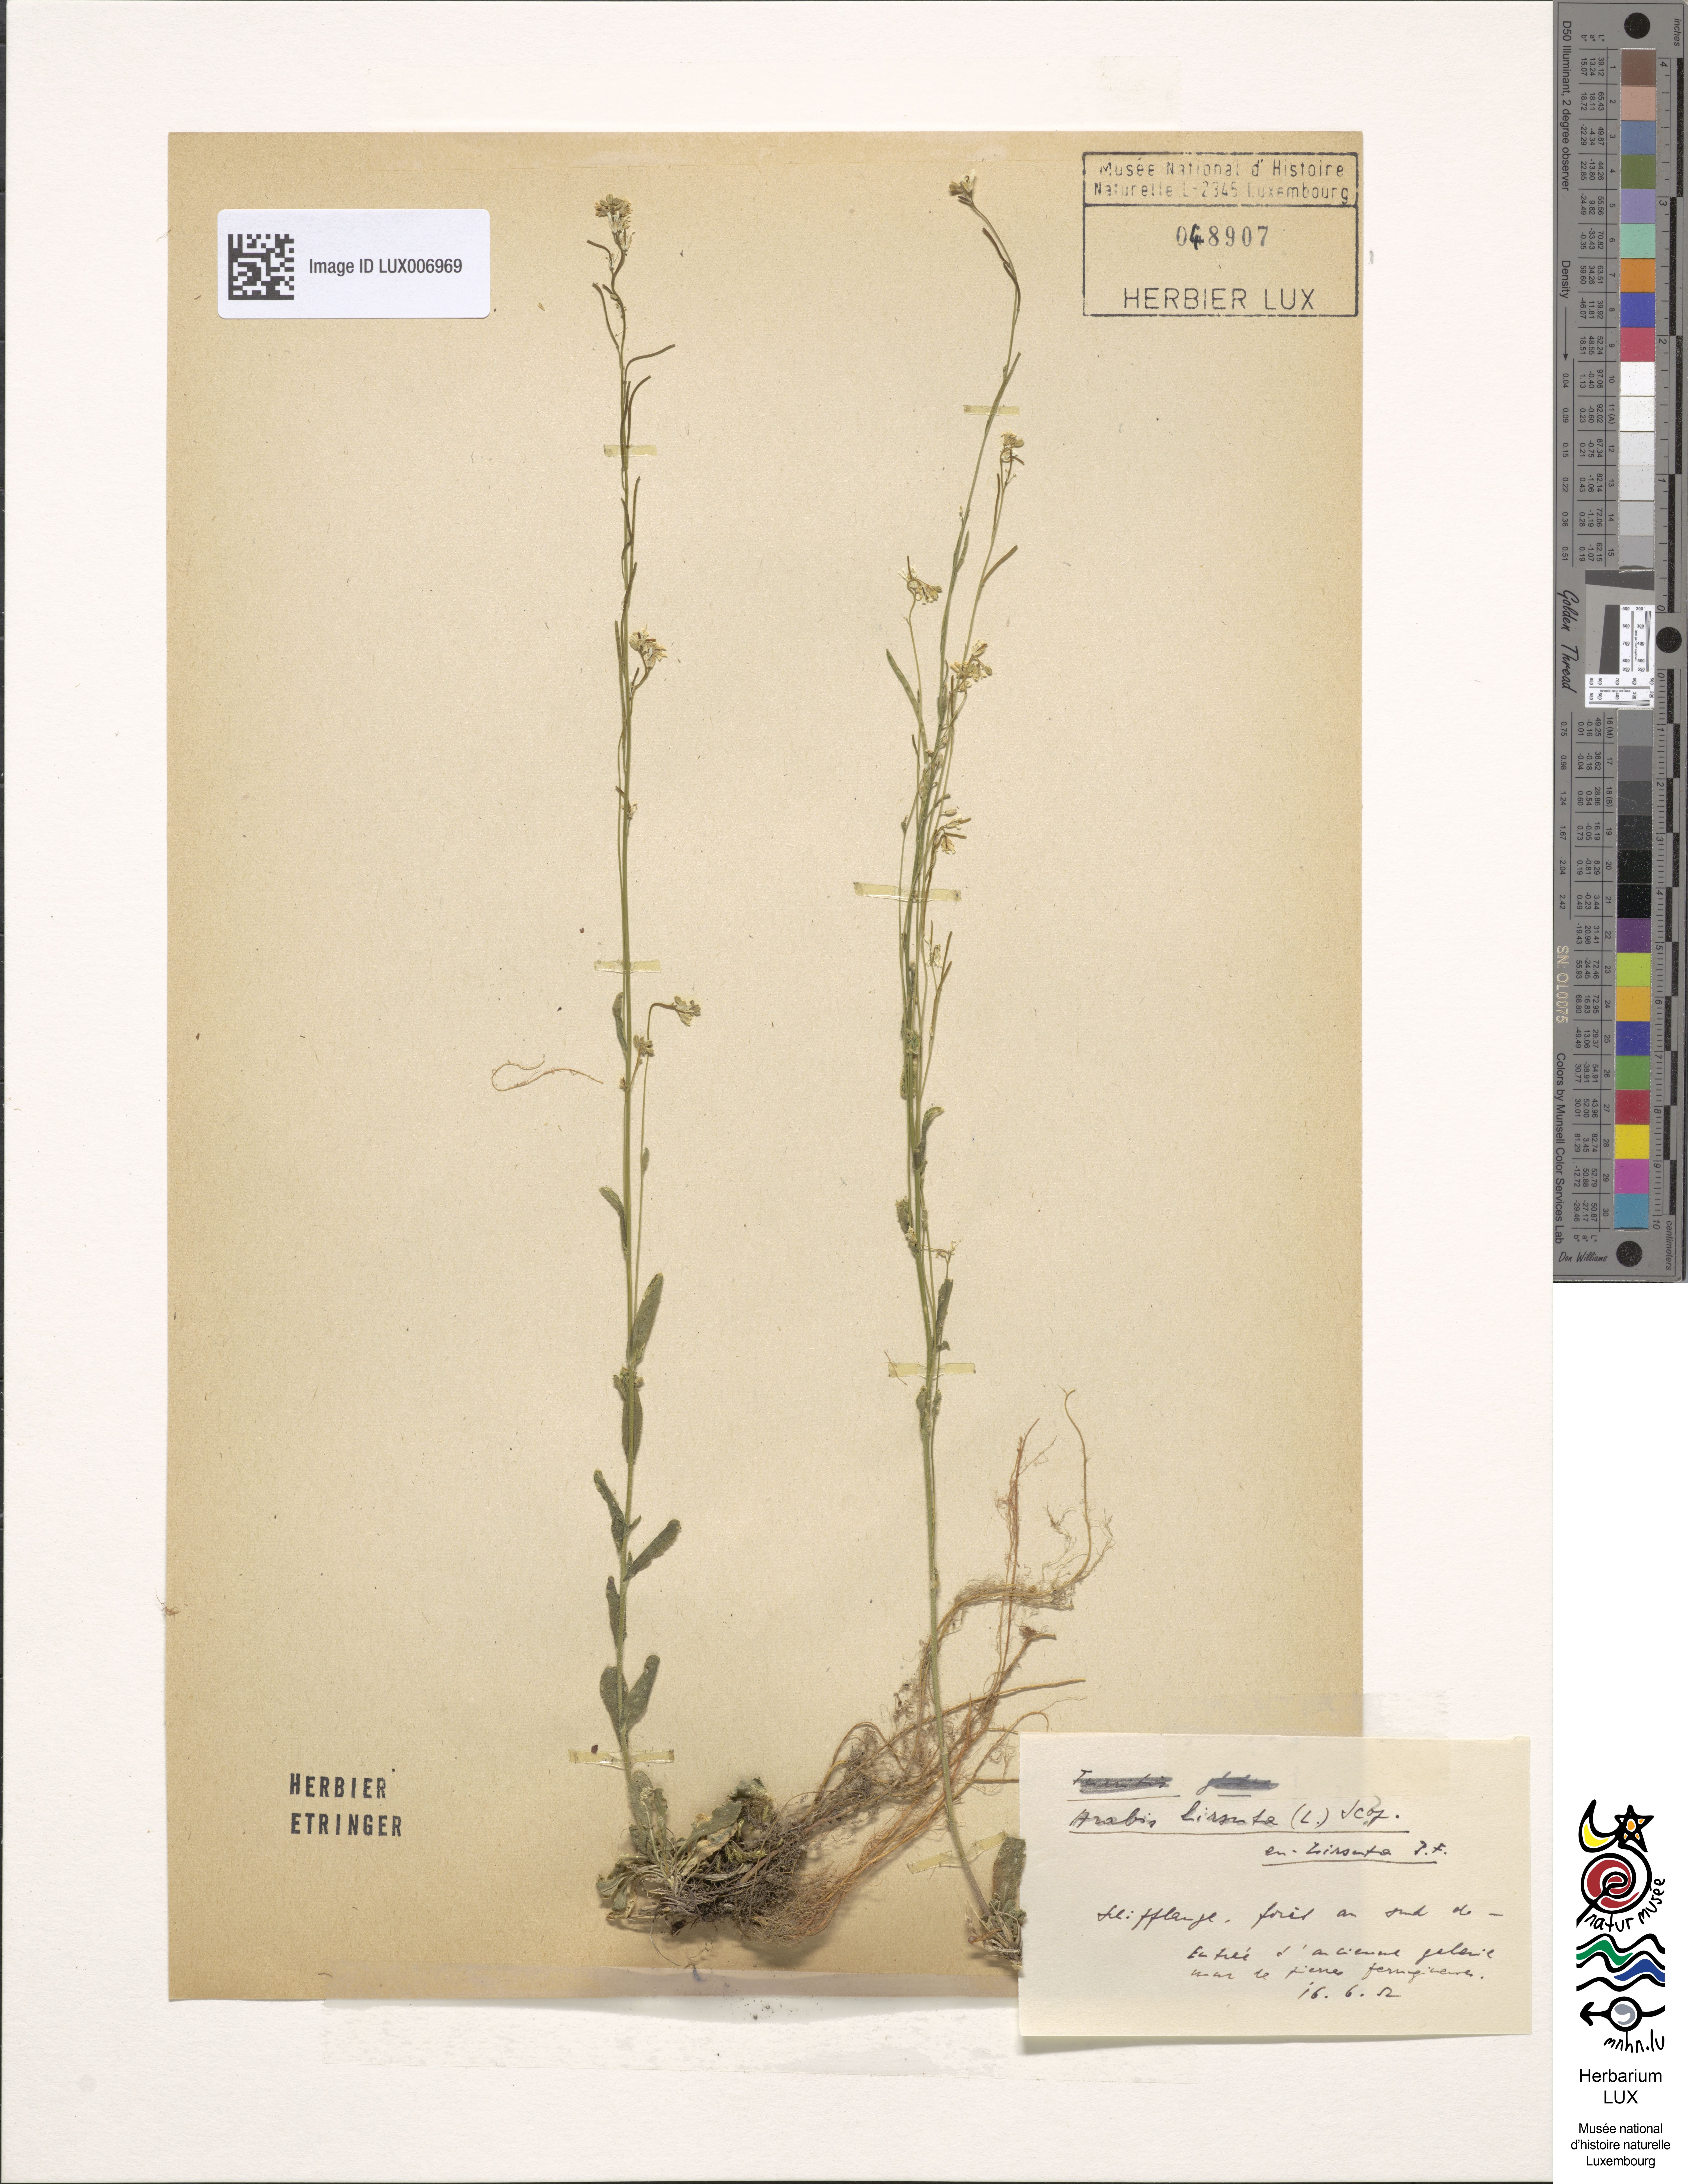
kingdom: Plantae
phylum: Tracheophyta
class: Magnoliopsida
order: Brassicales
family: Brassicaceae
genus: Arabis
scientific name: Arabis hirsuta
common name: Hairy rock-cress
